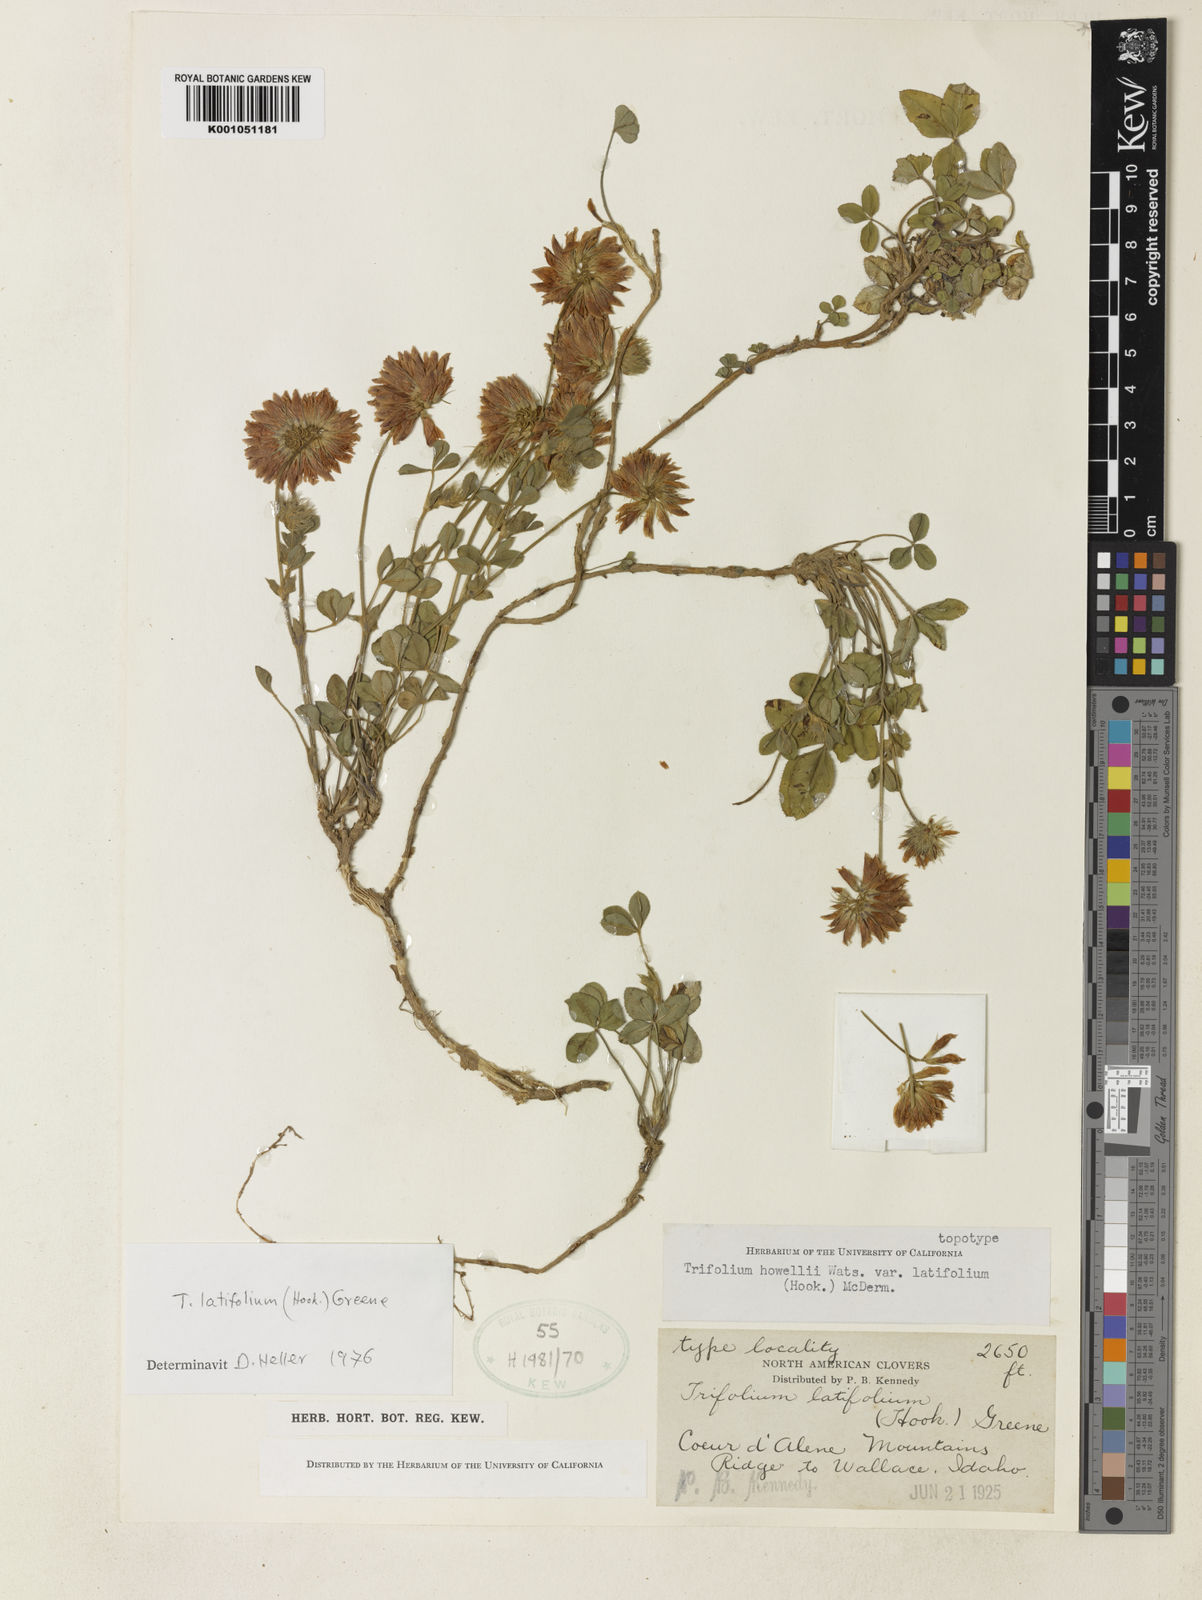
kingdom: Plantae
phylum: Tracheophyta
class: Magnoliopsida
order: Fabales
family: Fabaceae
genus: Trifolium
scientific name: Trifolium howellii
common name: Howell's clover
